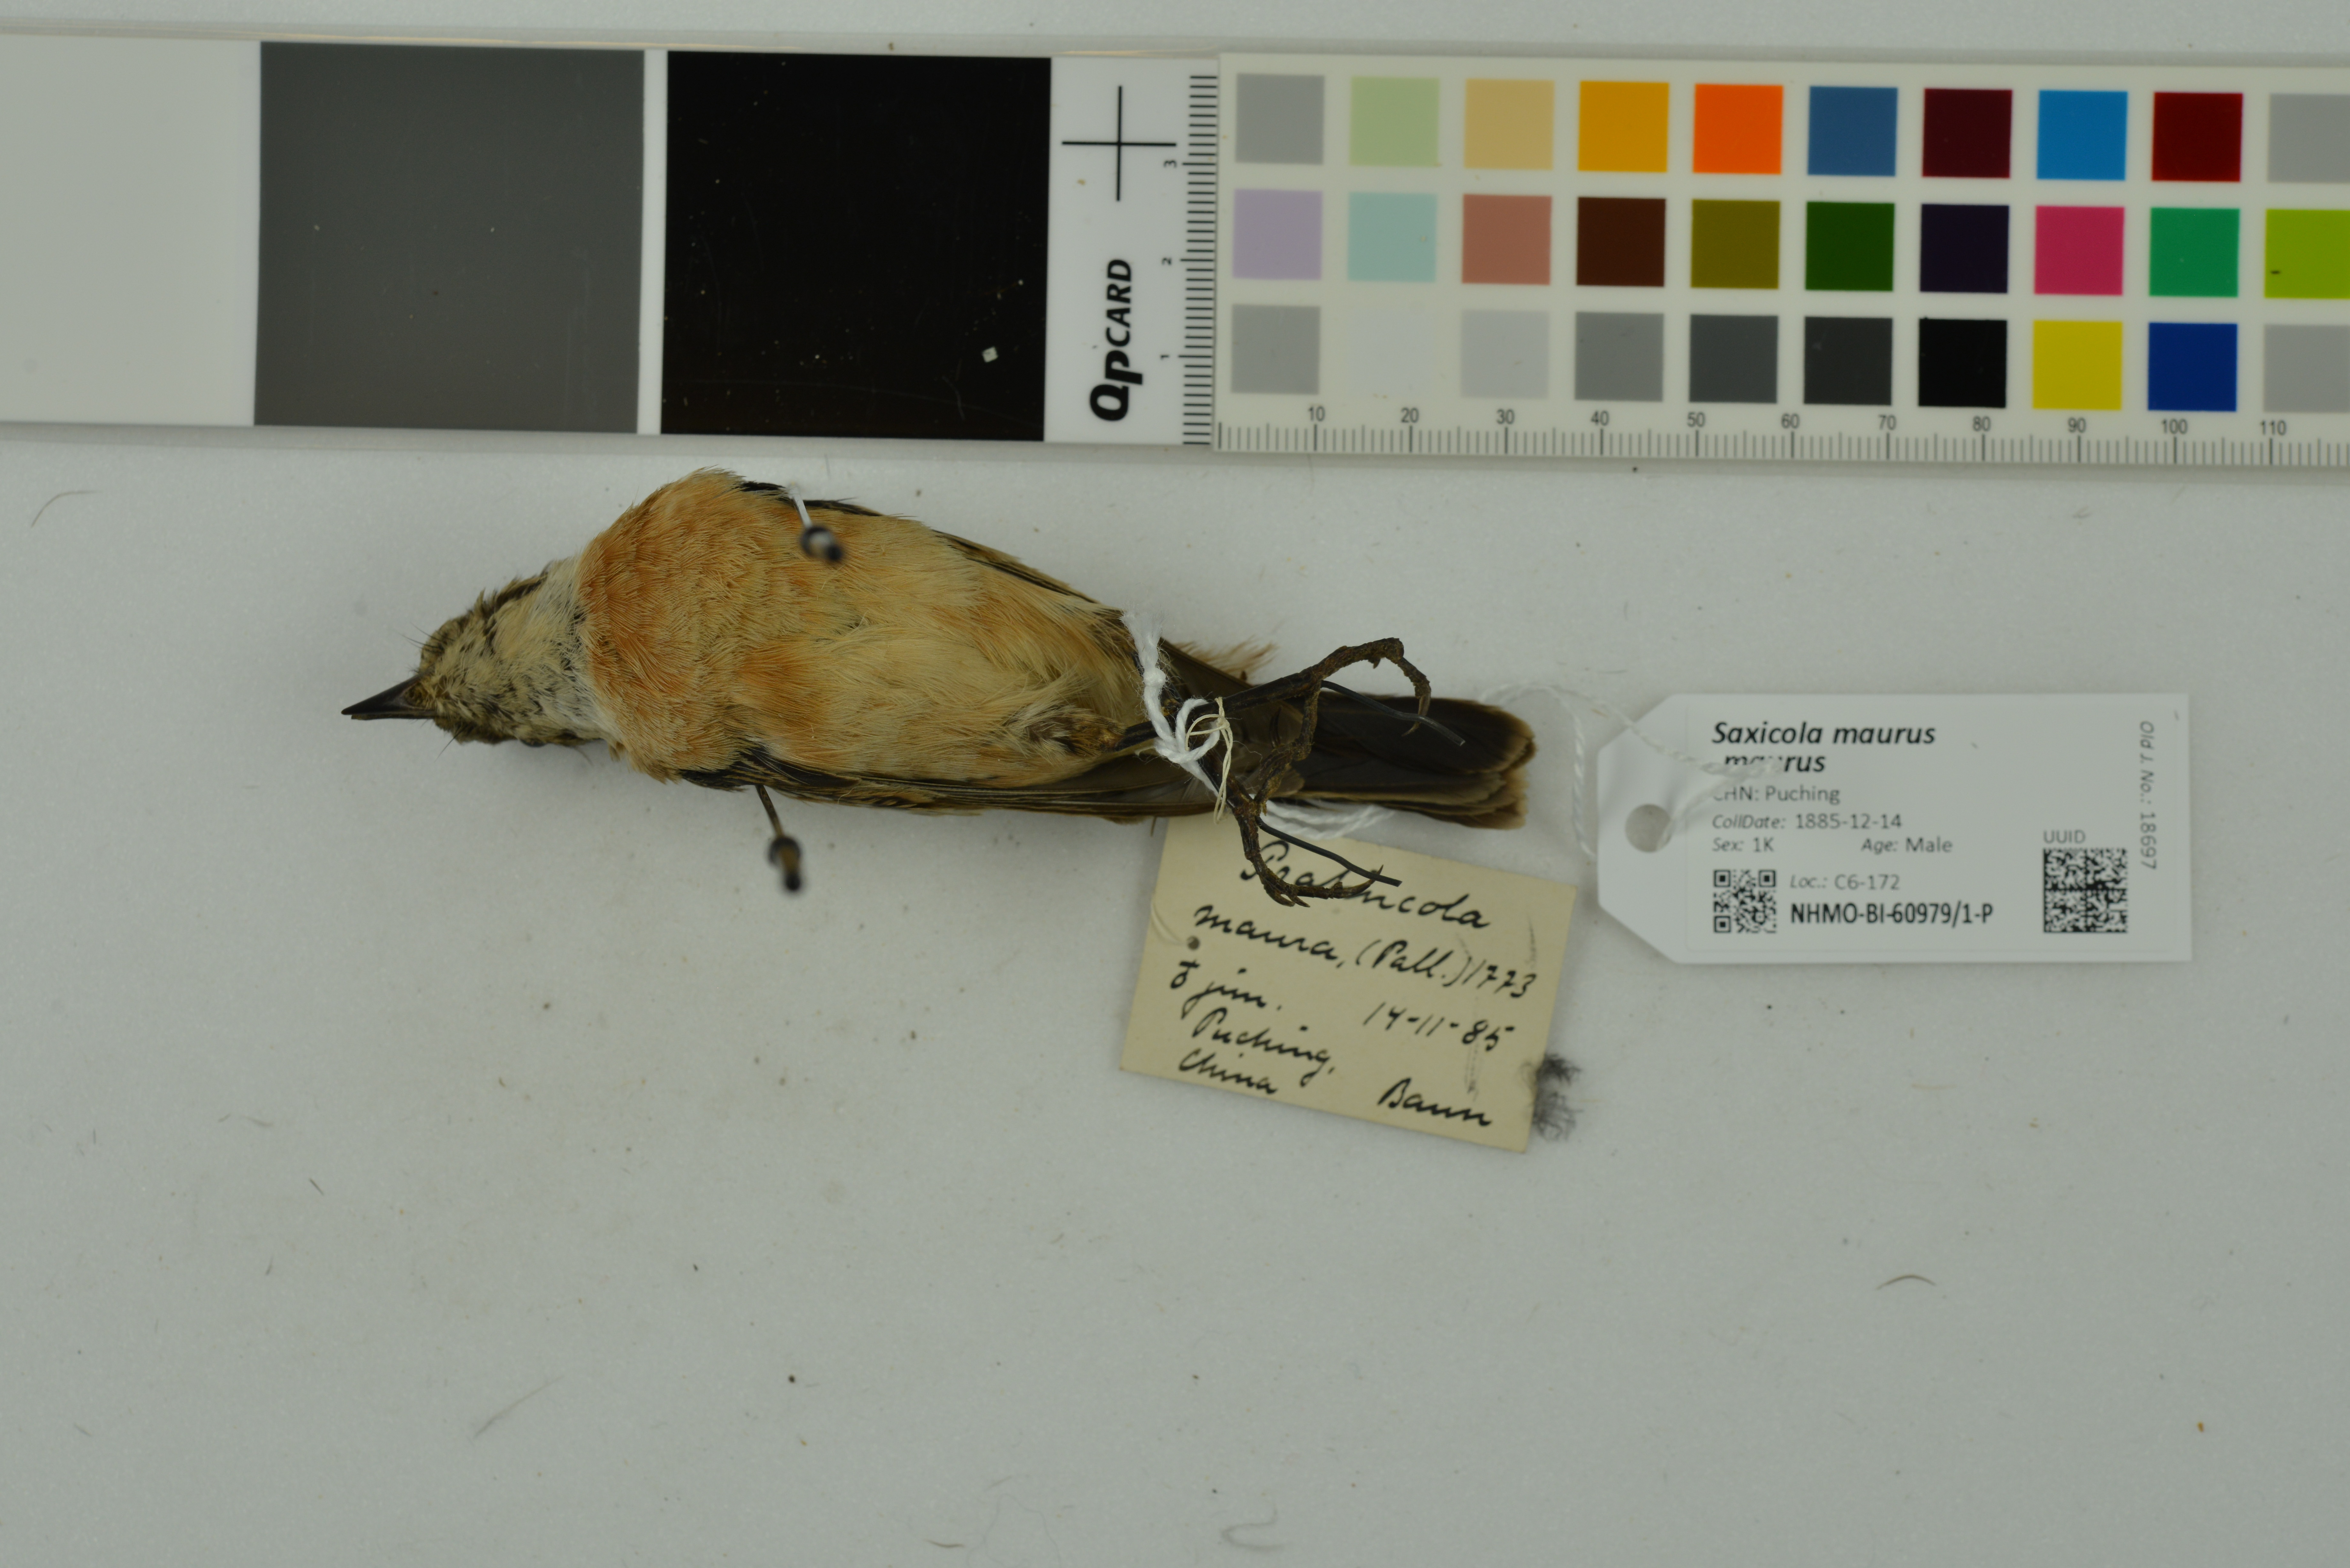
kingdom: Animalia
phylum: Chordata
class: Aves
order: Passeriformes
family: Muscicapidae
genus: Saxicola
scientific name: Saxicola maurus
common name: Siberian stonechat
